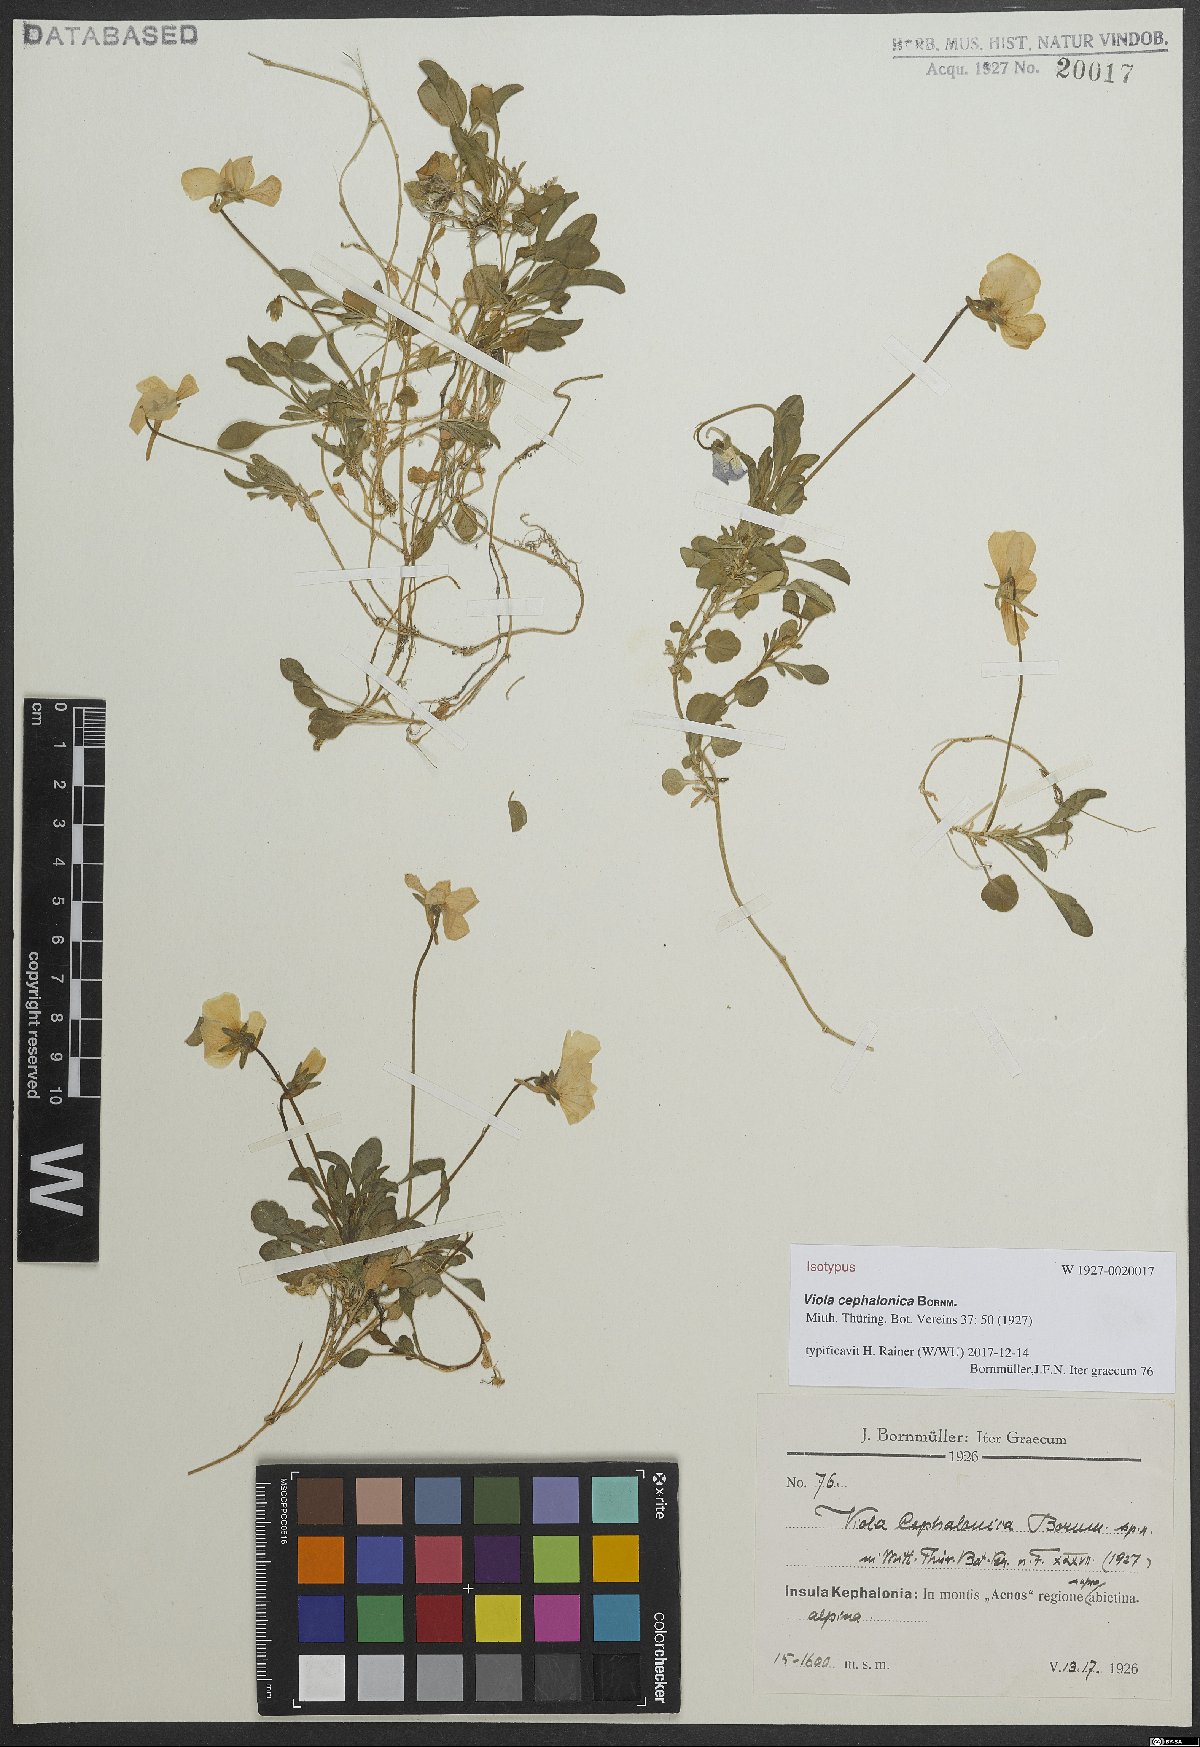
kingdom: Plantae
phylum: Tracheophyta
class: Magnoliopsida
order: Malpighiales
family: Violaceae
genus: Viola
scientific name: Viola cephalonica
